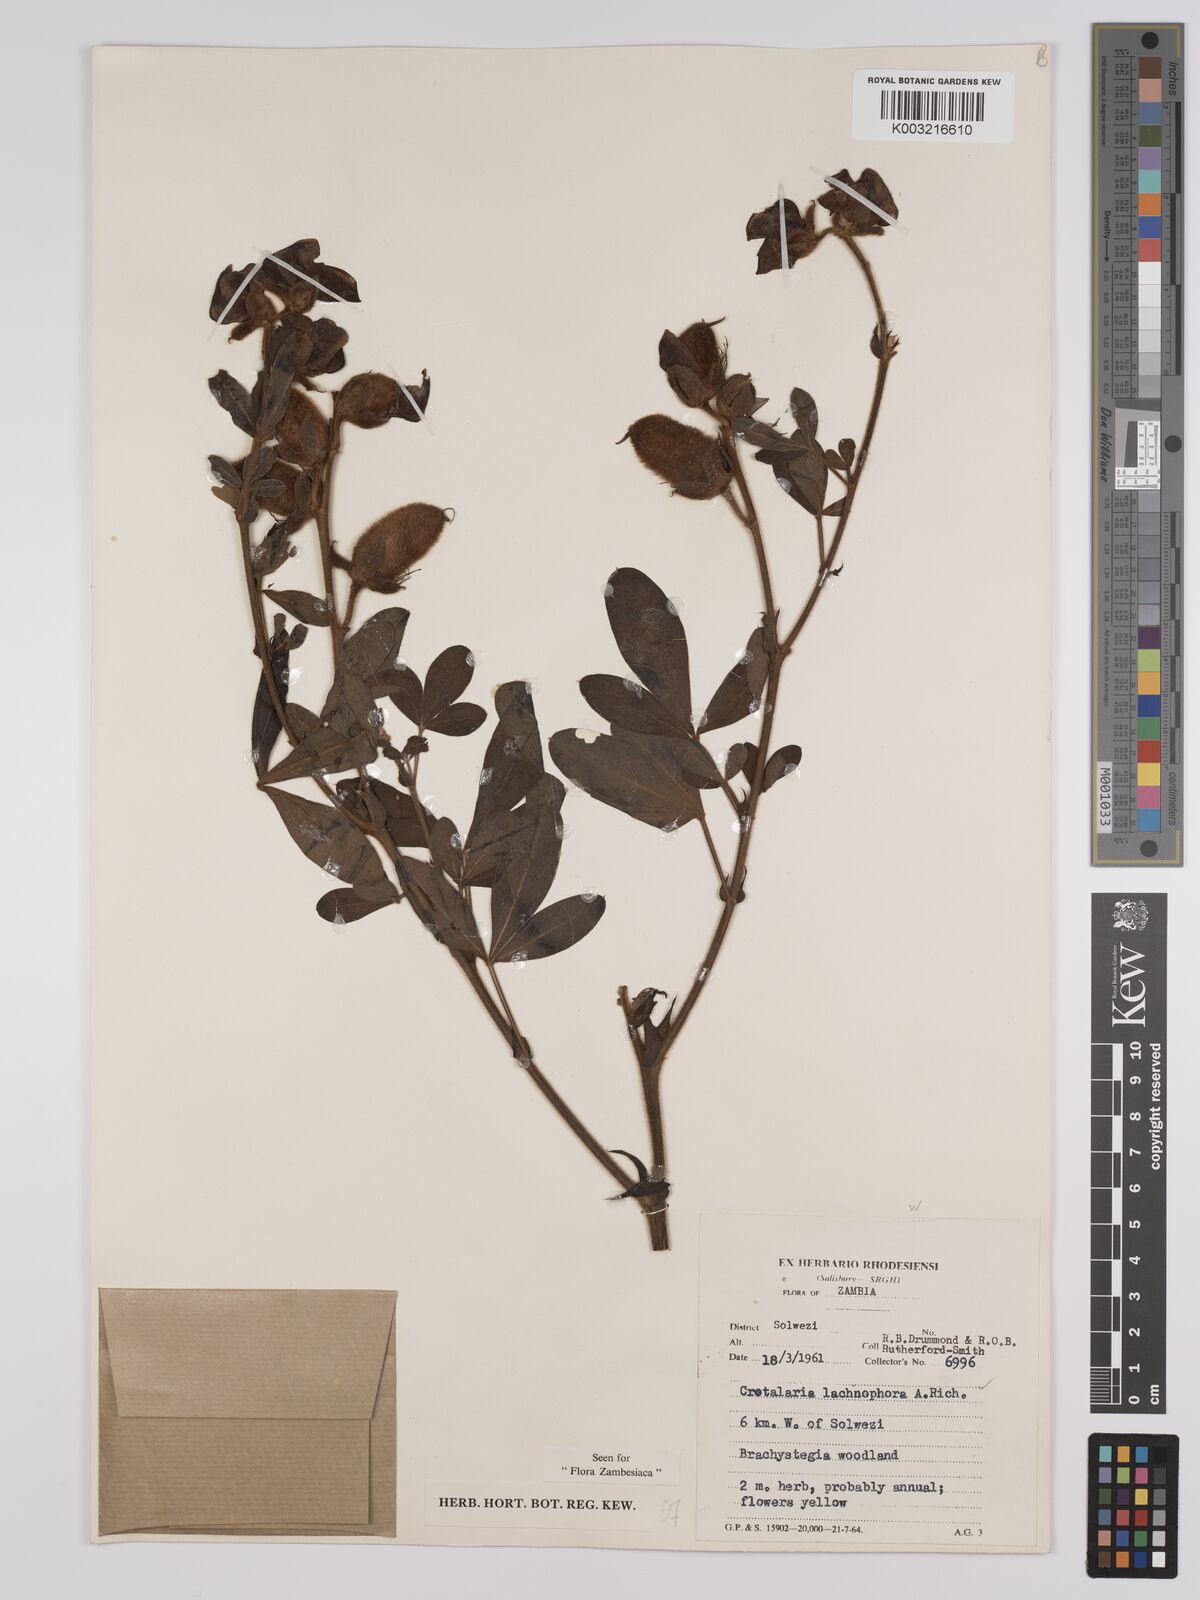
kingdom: Plantae
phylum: Tracheophyta
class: Magnoliopsida
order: Fabales
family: Fabaceae
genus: Crotalaria
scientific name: Crotalaria lachnophora
